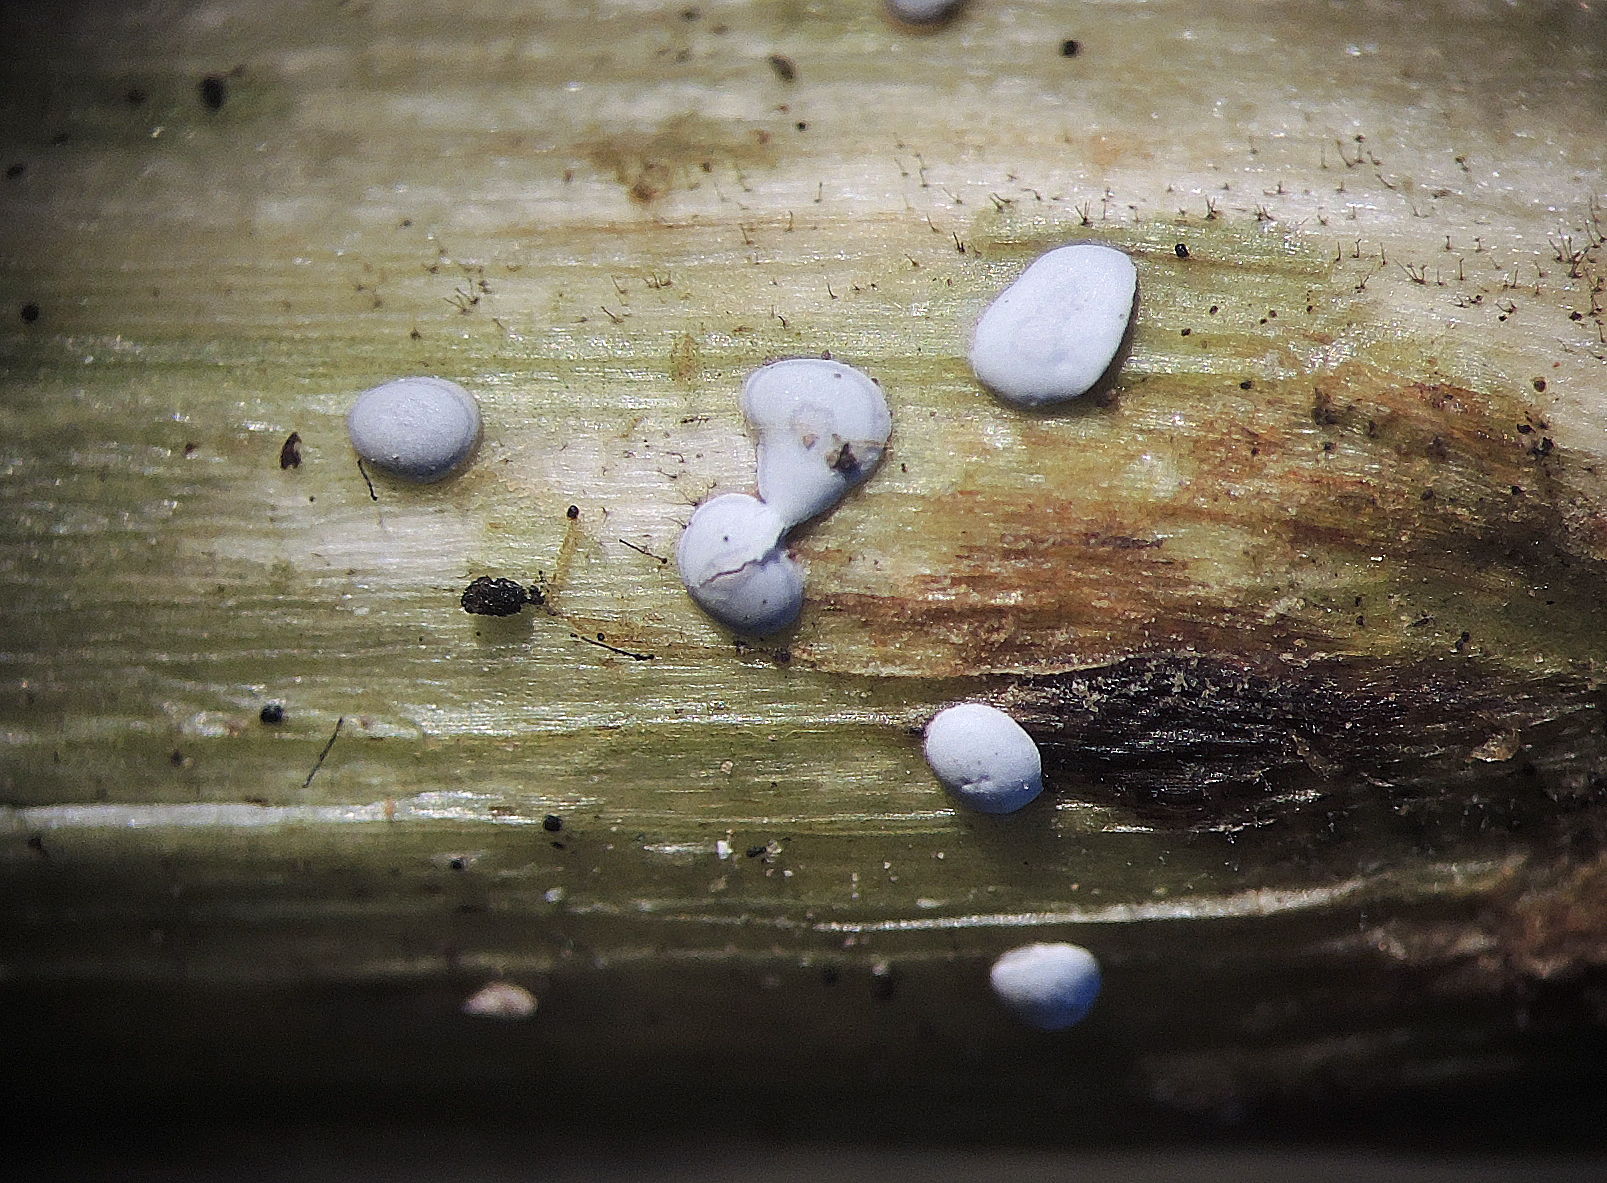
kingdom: Protozoa
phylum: Mycetozoa
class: Myxomycetes
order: Physarales
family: Didymiaceae
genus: Didymium
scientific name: Didymium difforme
